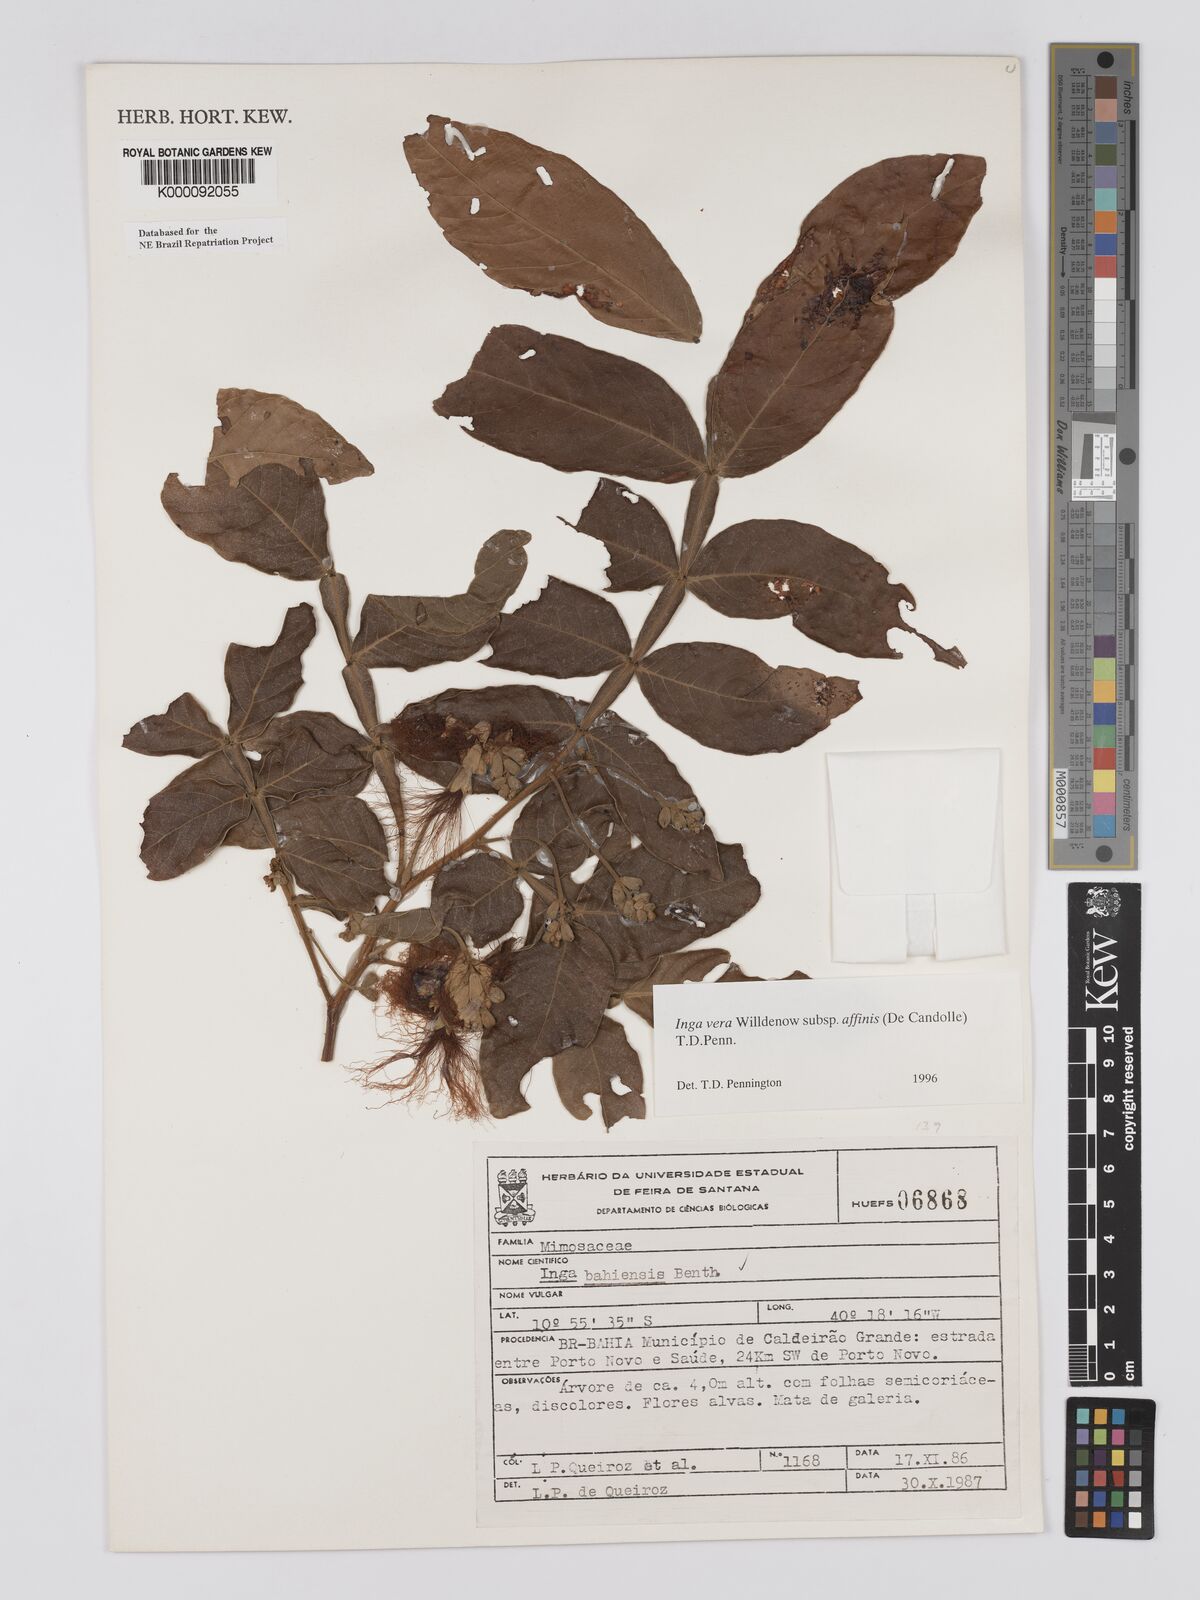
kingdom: Plantae
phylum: Tracheophyta
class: Magnoliopsida
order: Fabales
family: Fabaceae
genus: Inga
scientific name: Inga affinis
